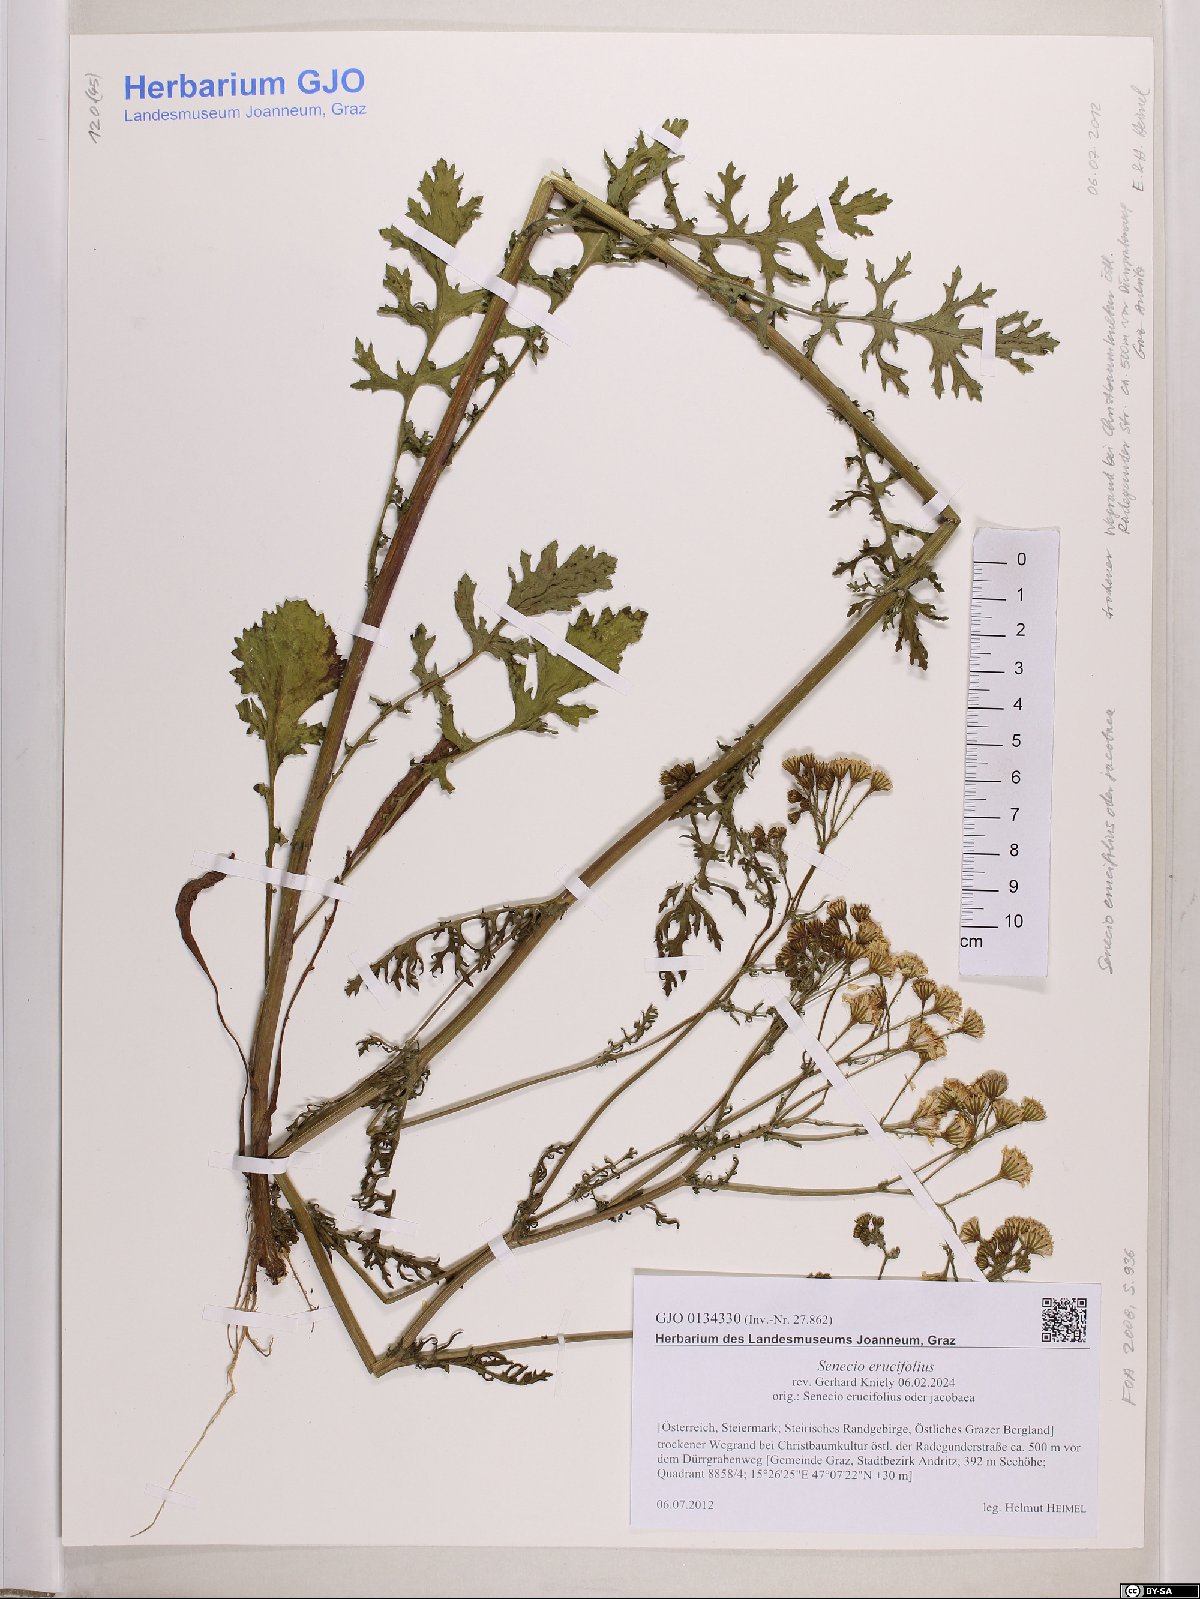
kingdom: Plantae
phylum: Tracheophyta
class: Magnoliopsida
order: Asterales
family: Asteraceae
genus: Jacobaea
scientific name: Jacobaea erucifolia
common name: Hoary ragwort
